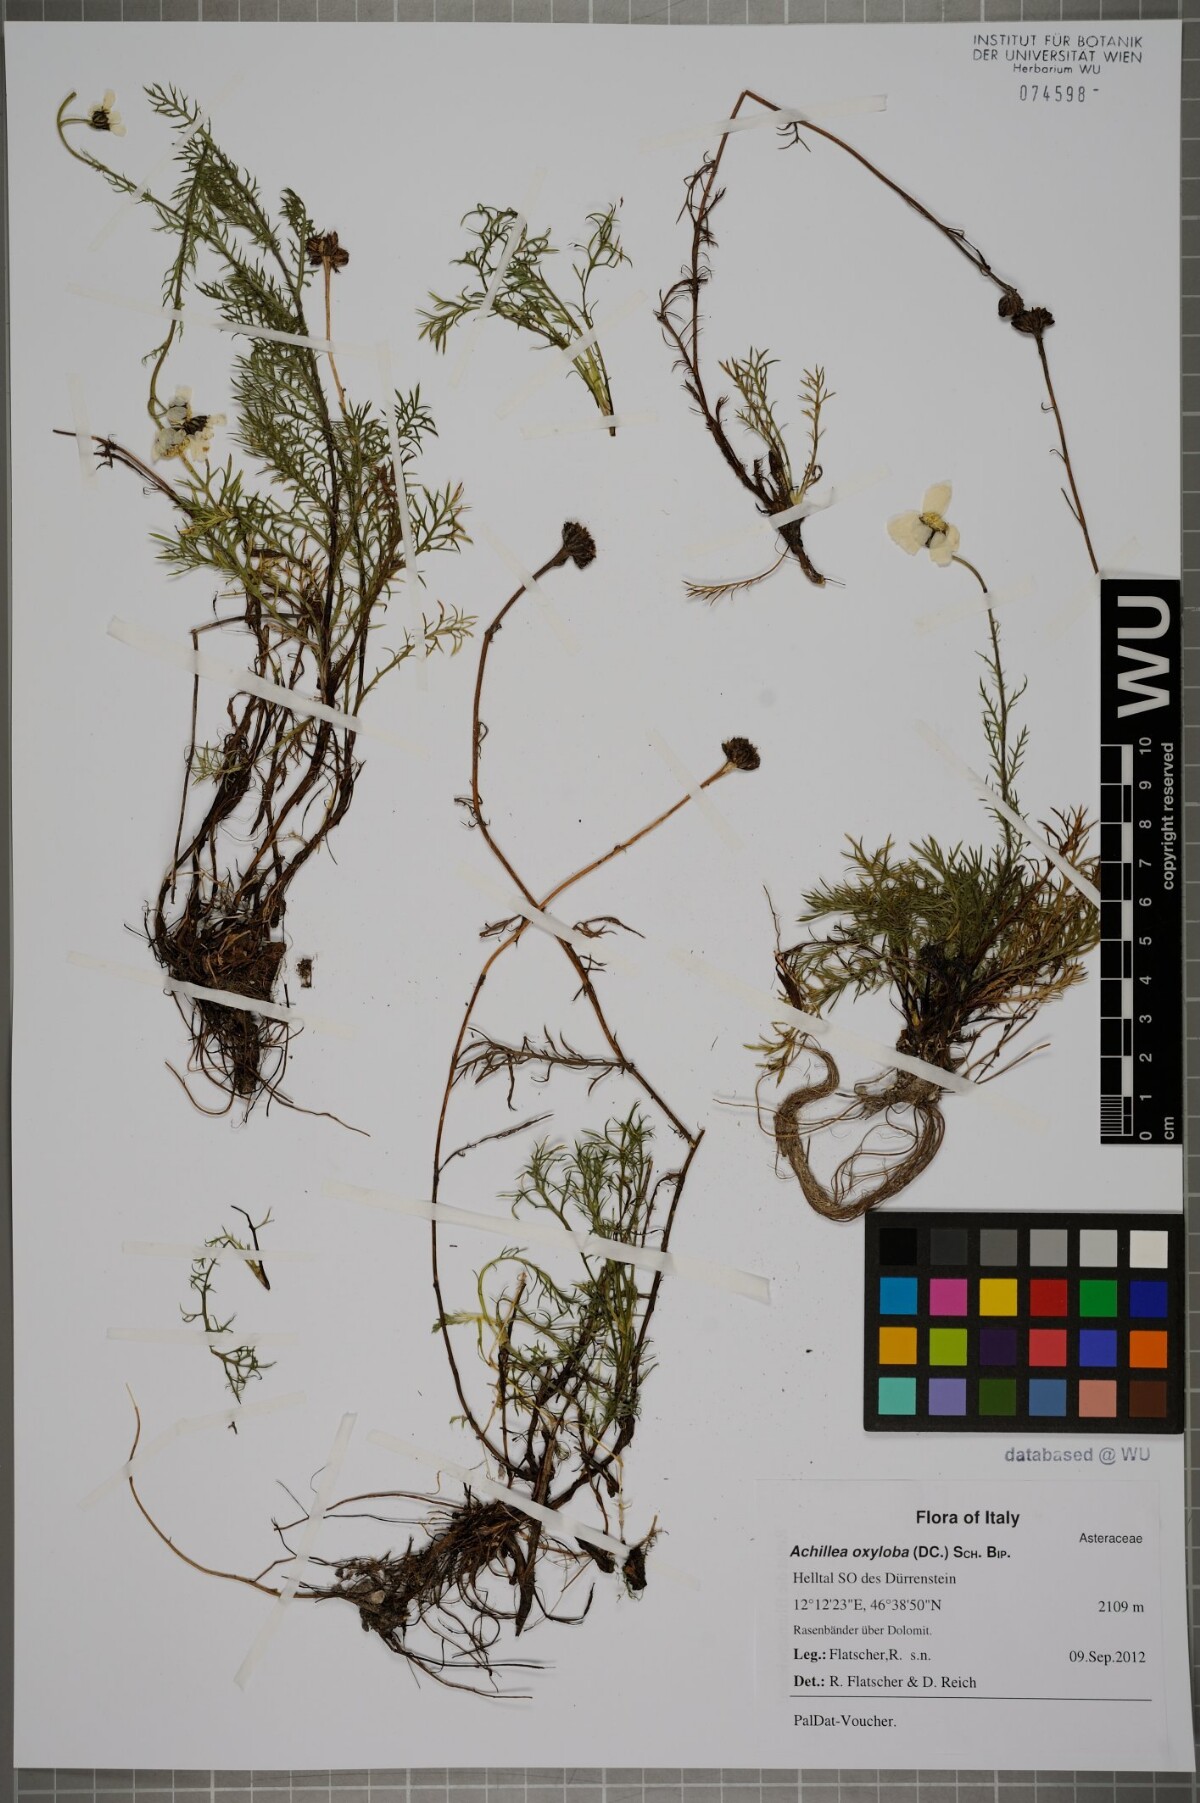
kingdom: Plantae
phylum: Tracheophyta
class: Magnoliopsida
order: Asterales
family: Asteraceae
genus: Achillea
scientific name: Achillea oxyloba
